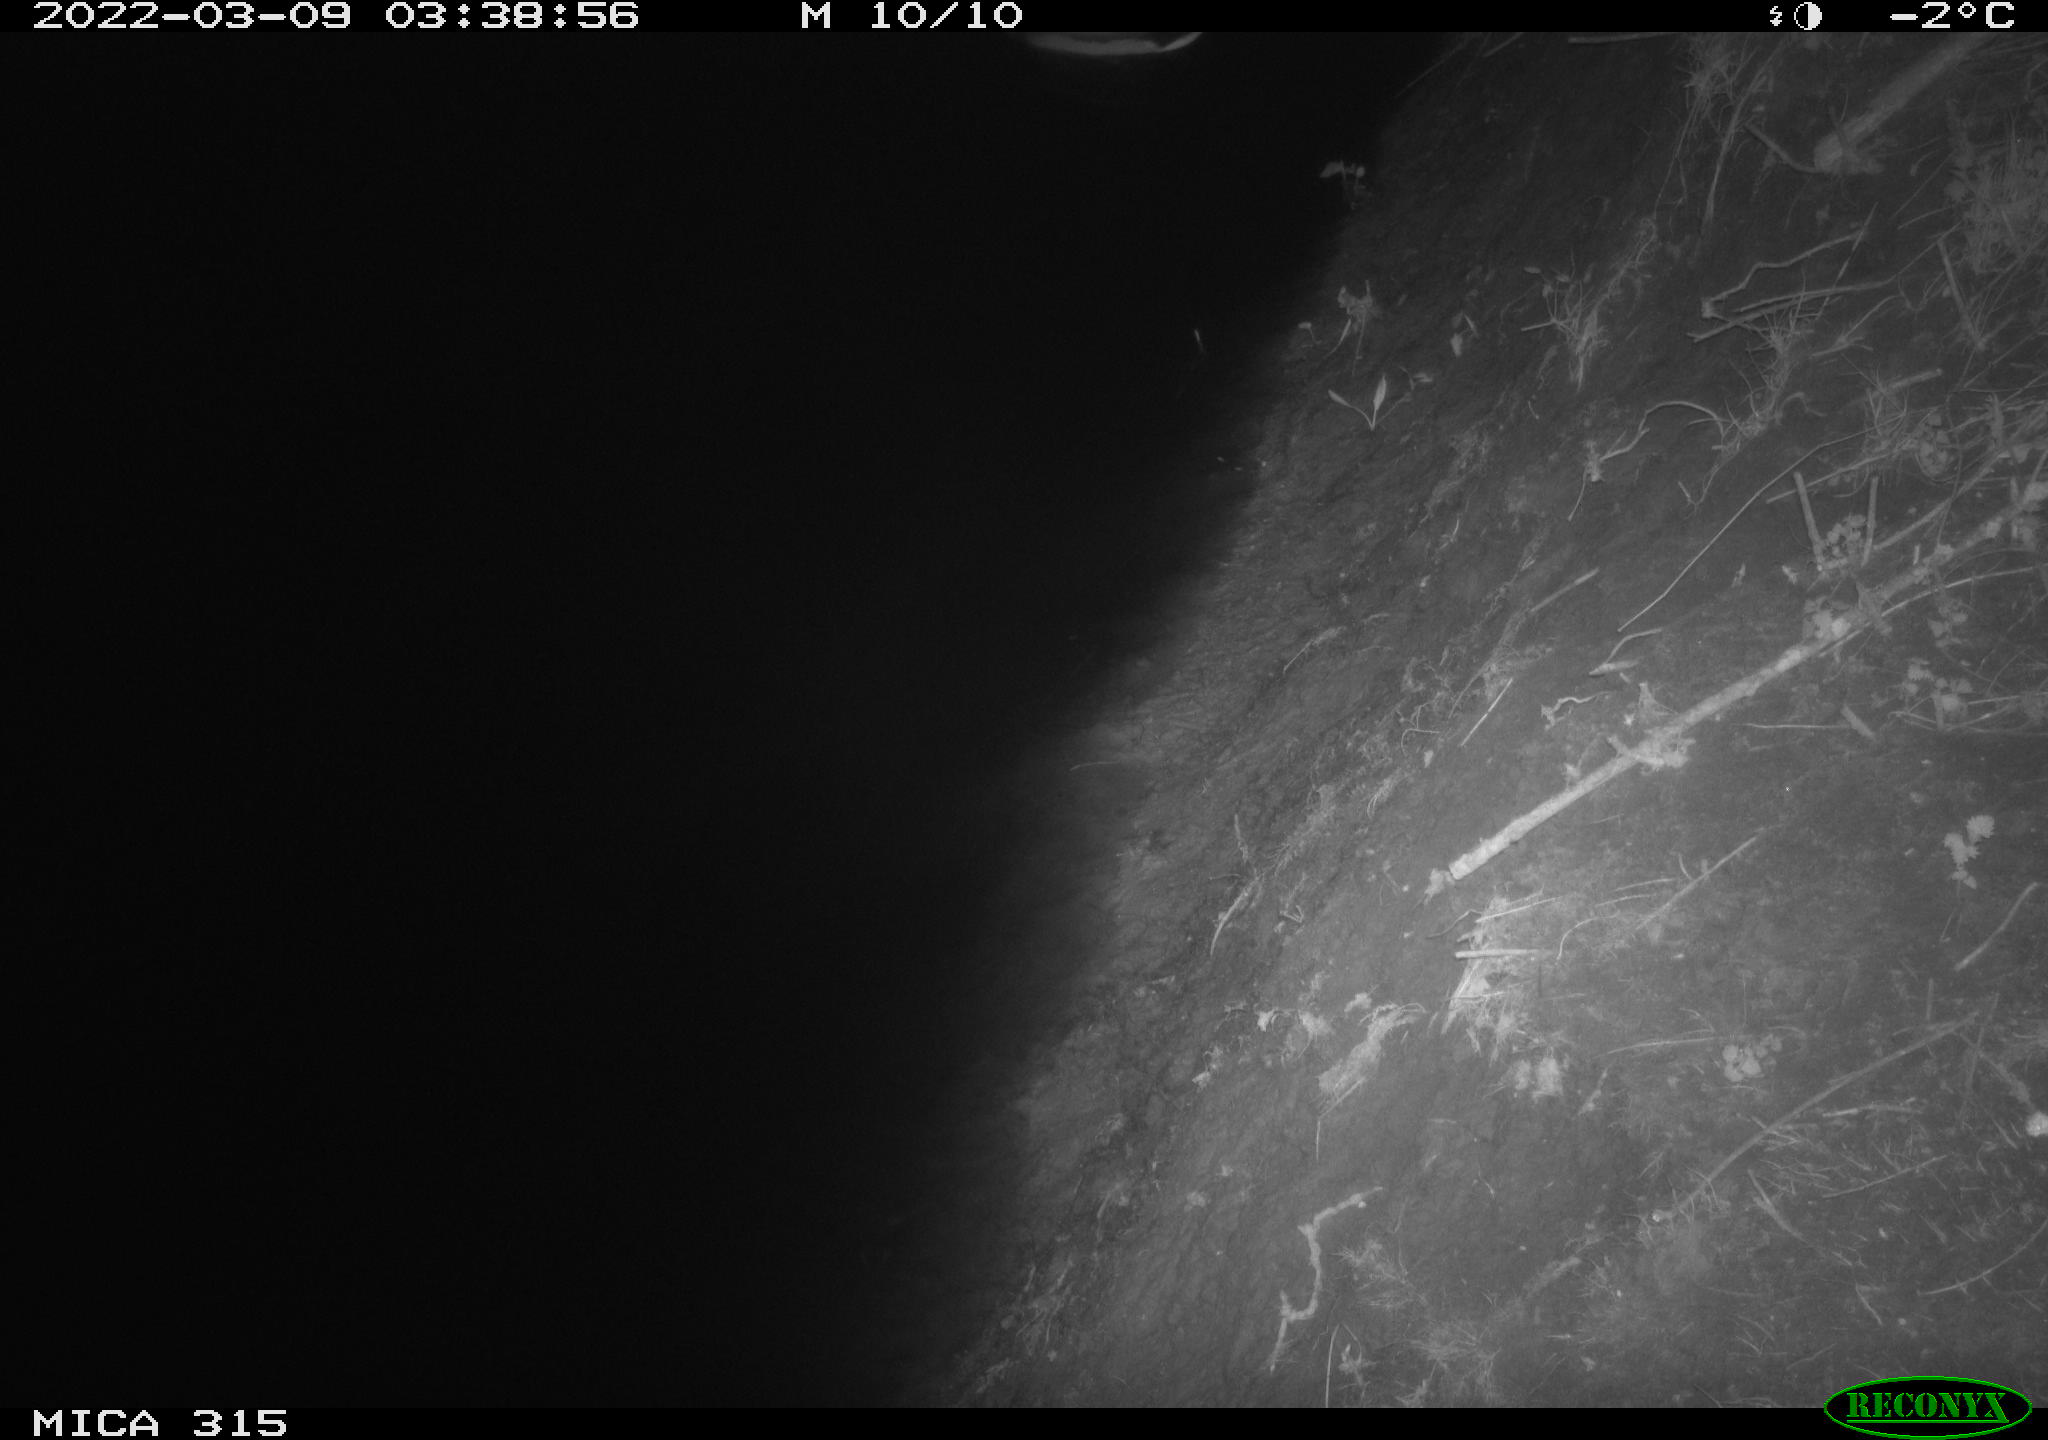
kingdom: Animalia
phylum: Chordata
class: Aves
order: Anseriformes
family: Anatidae
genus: Anas
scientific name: Anas platyrhynchos
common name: Mallard
